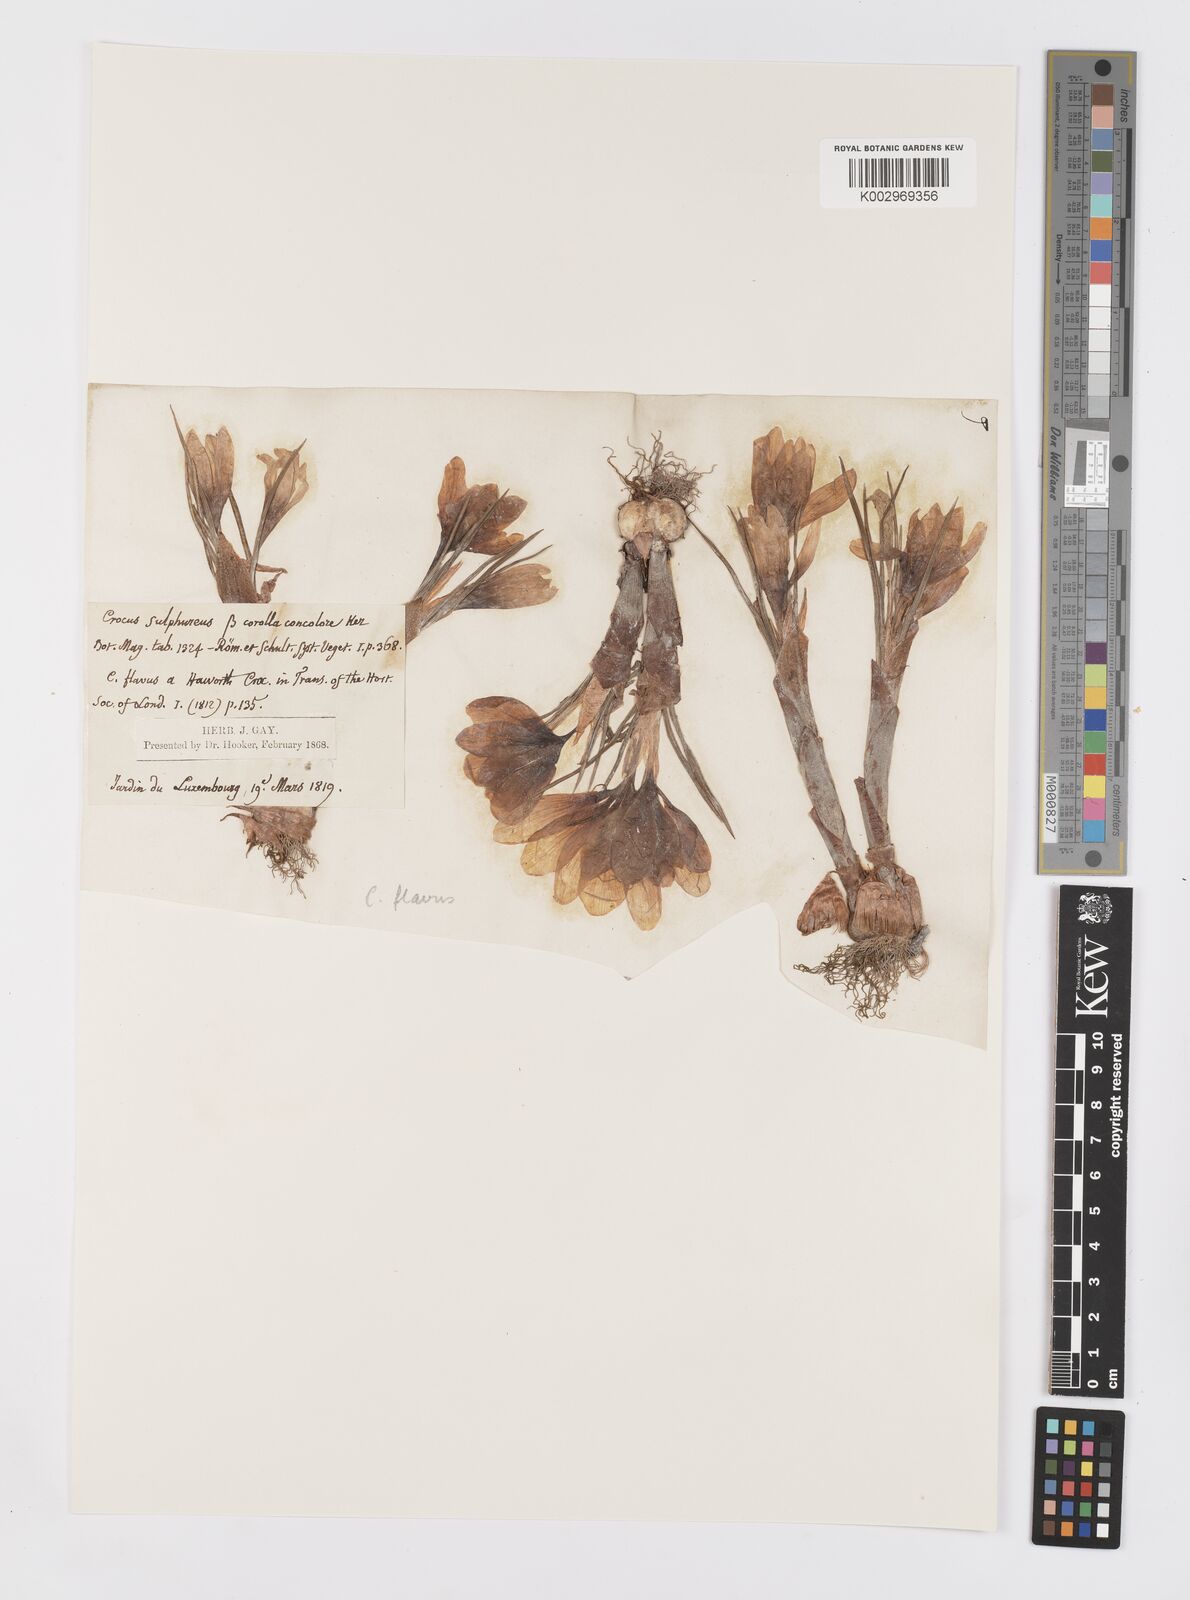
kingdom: Plantae
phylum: Tracheophyta
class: Liliopsida
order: Asparagales
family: Iridaceae
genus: Crocus
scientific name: Crocus flavus
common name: Yellow crocus
